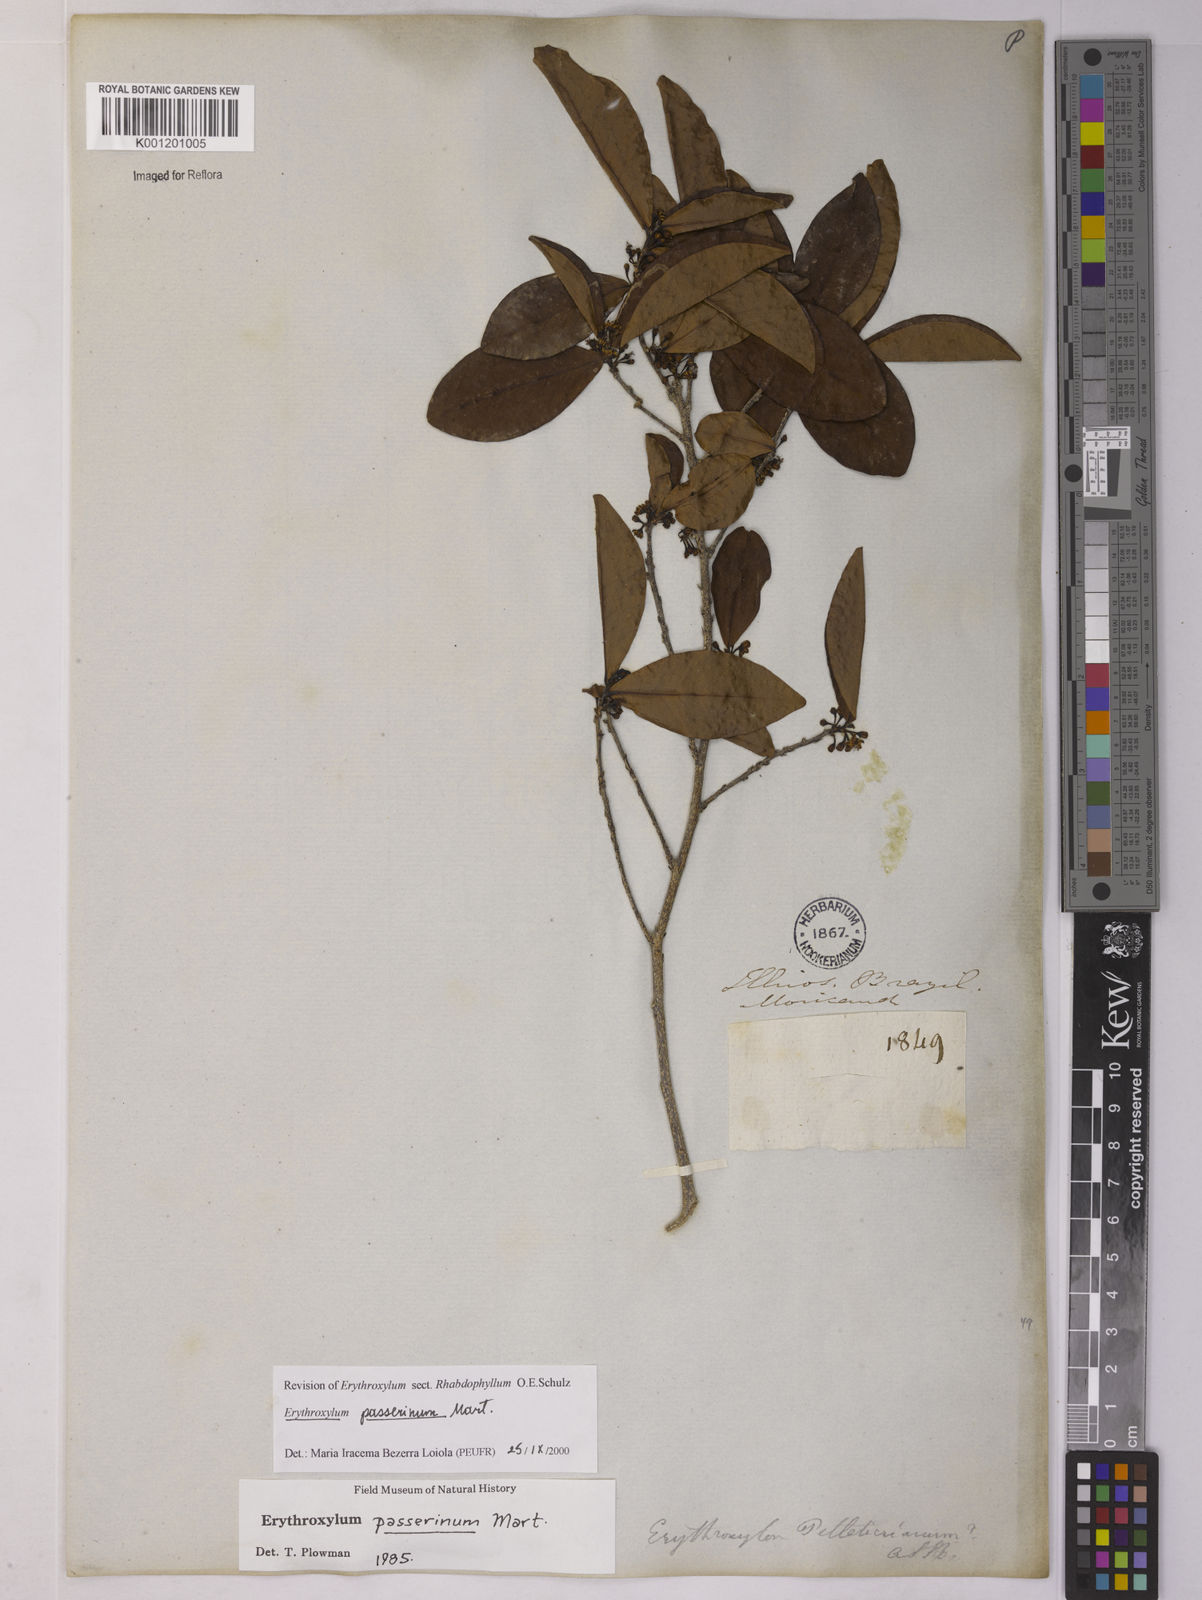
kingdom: Plantae
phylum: Tracheophyta
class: Magnoliopsida
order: Malpighiales
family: Erythroxylaceae
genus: Erythroxylum
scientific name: Erythroxylum passerinum
